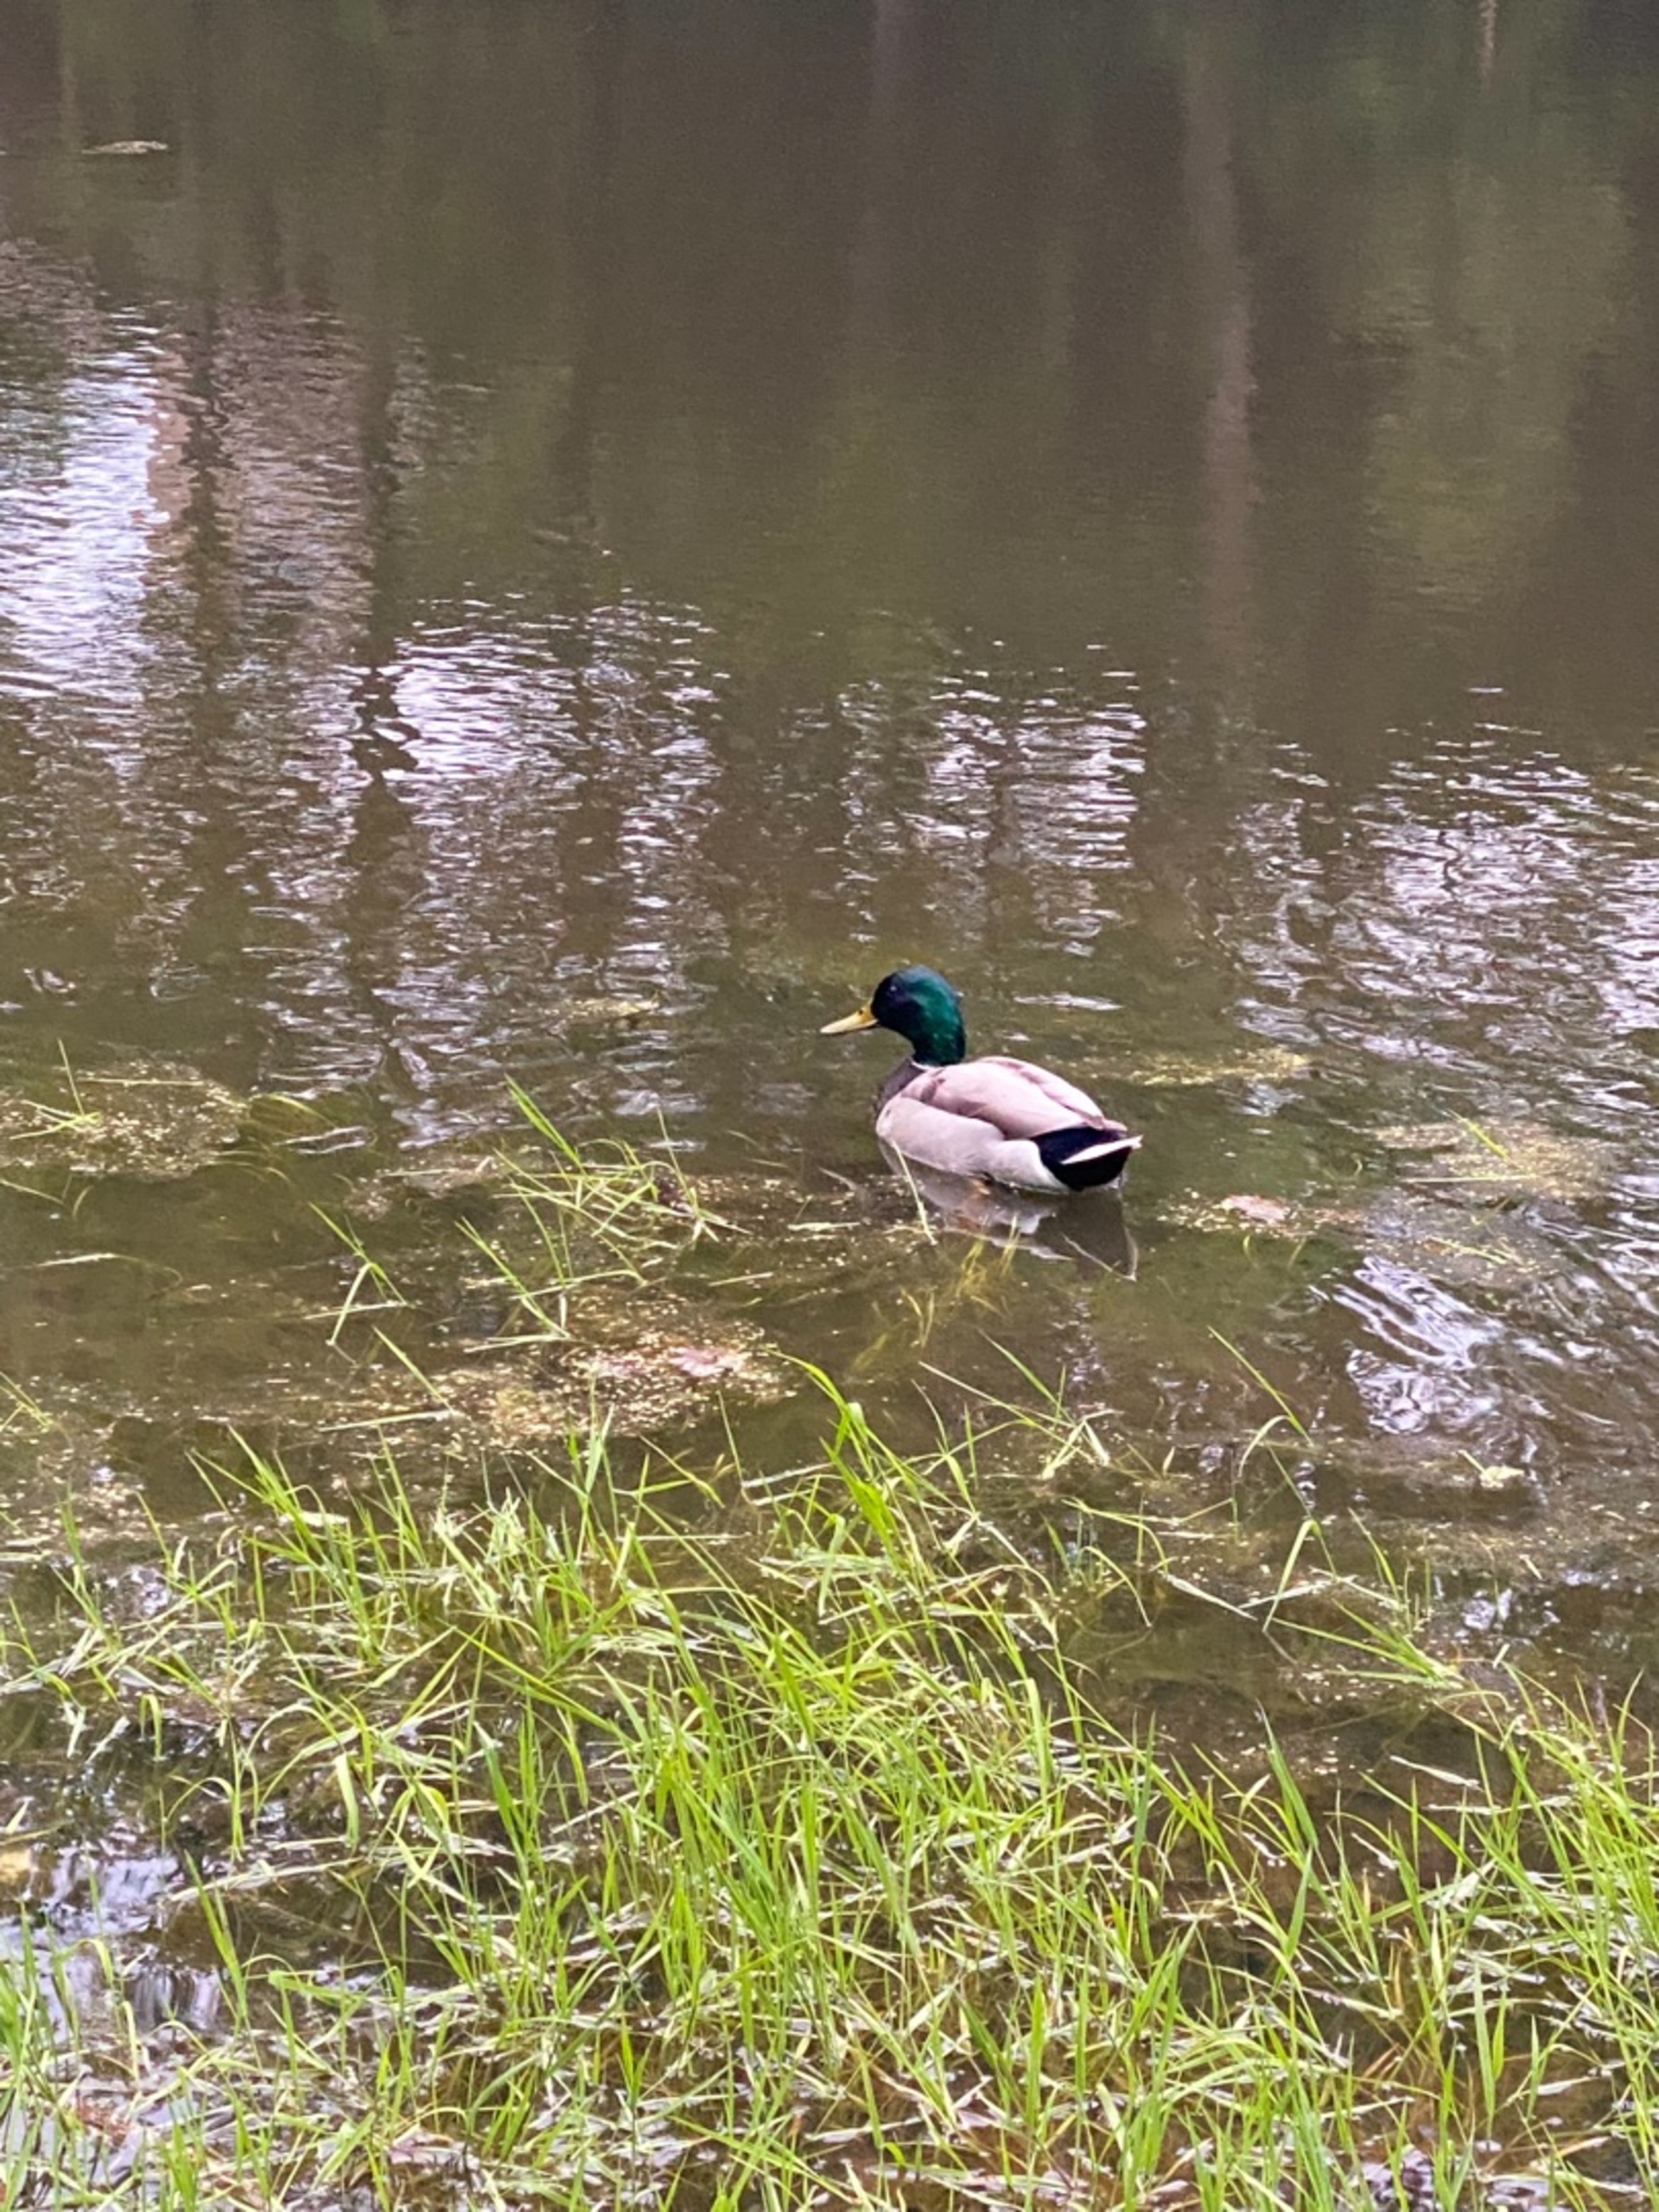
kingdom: Animalia
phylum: Chordata
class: Aves
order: Anseriformes
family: Anatidae
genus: Anas
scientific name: Anas platyrhynchos
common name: Gråand
